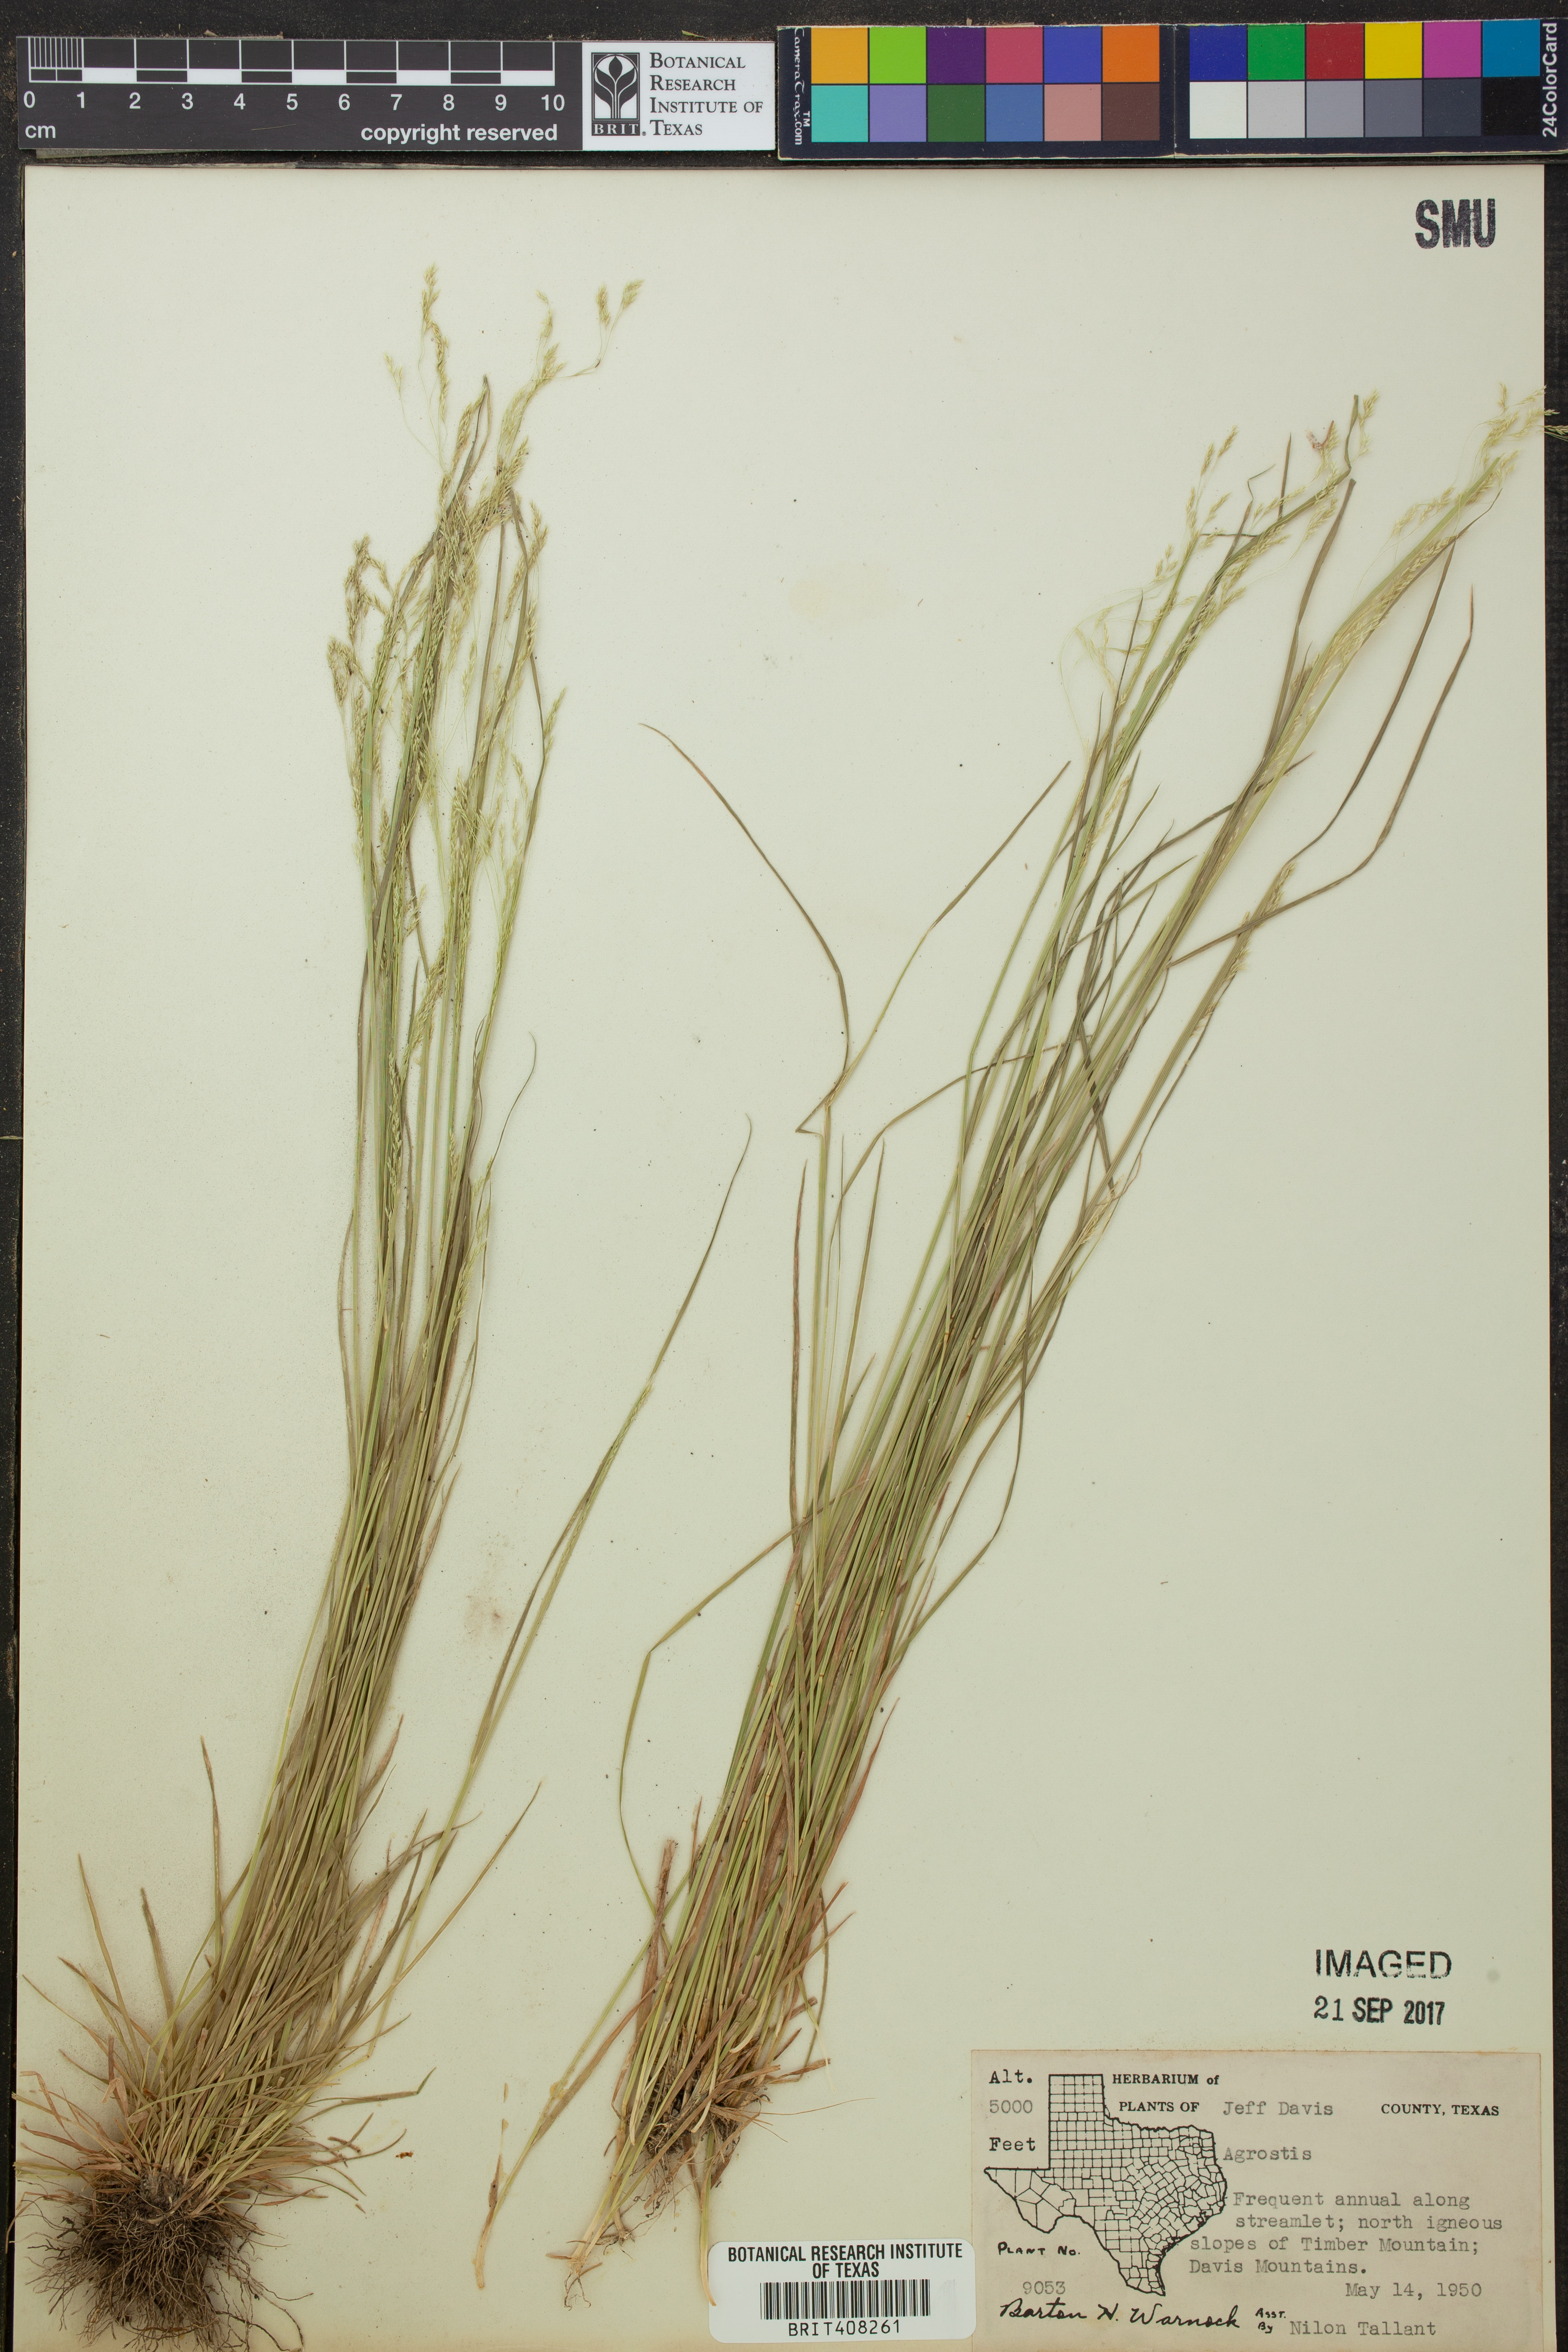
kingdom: Plantae
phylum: Tracheophyta
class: Liliopsida
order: Poales
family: Poaceae
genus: Agrostis
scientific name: Agrostis
